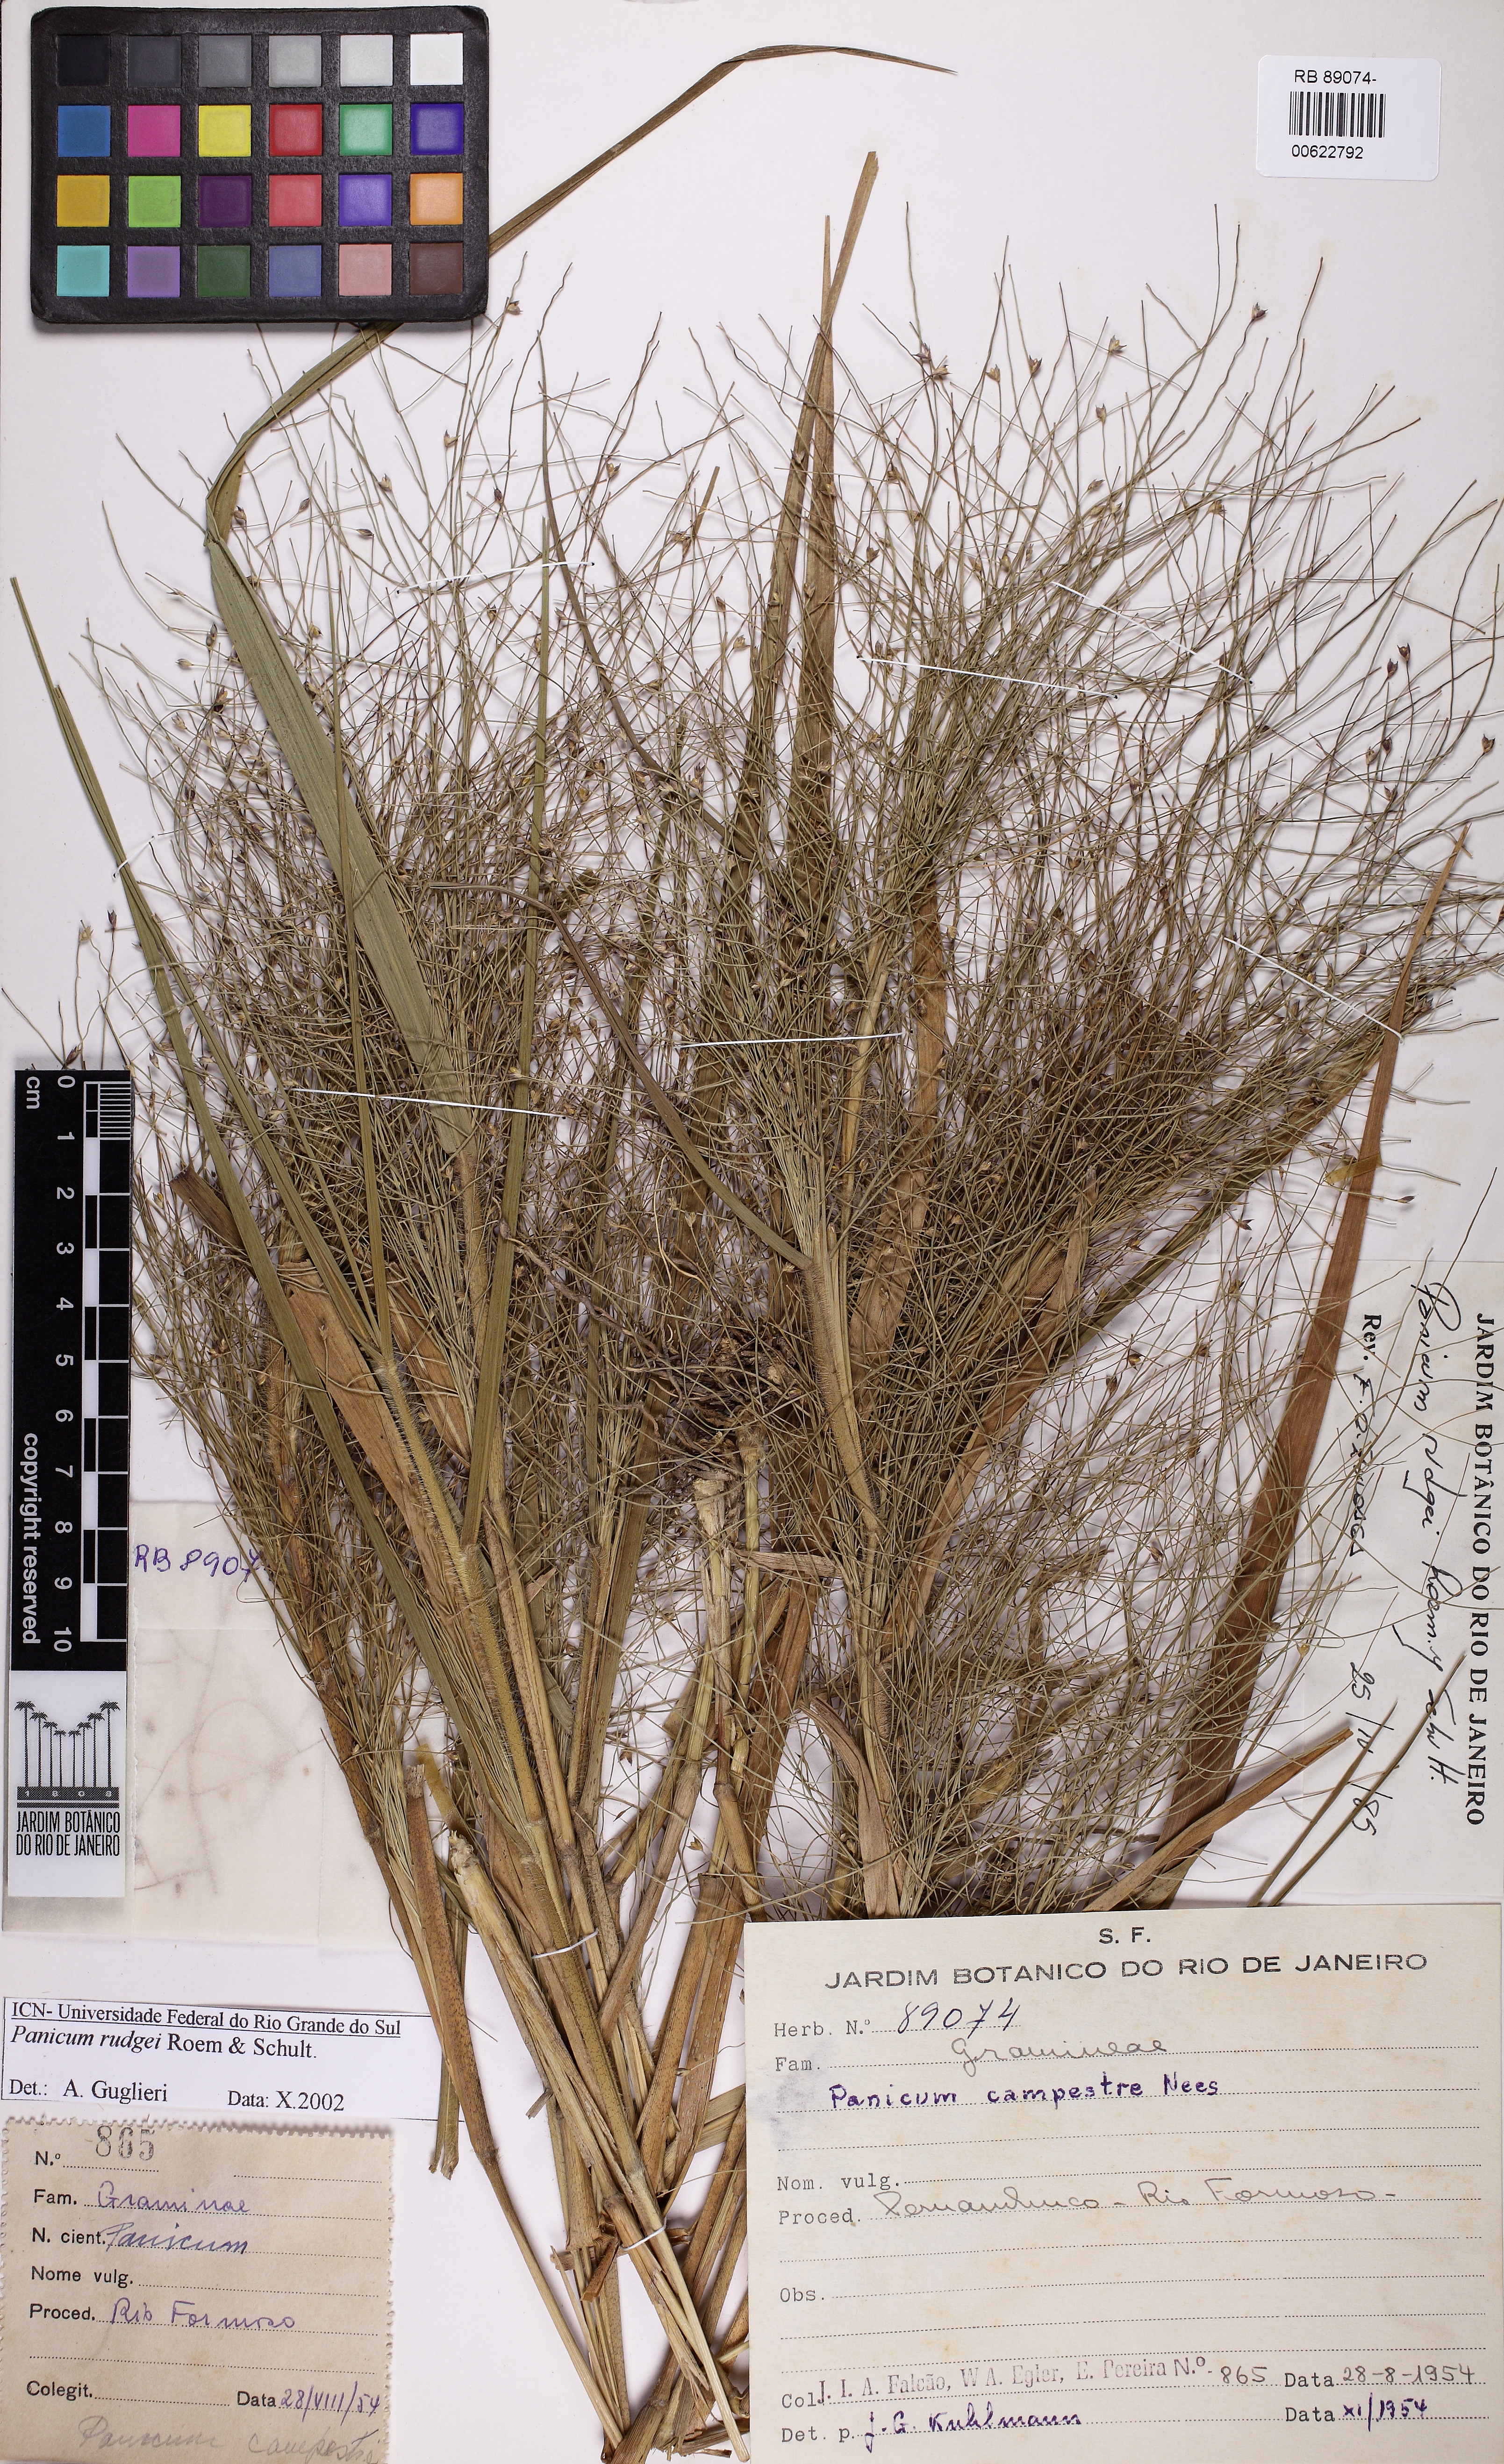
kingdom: Plantae
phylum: Tracheophyta
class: Liliopsida
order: Poales
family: Poaceae
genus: Panicum
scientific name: Panicum rudgei
